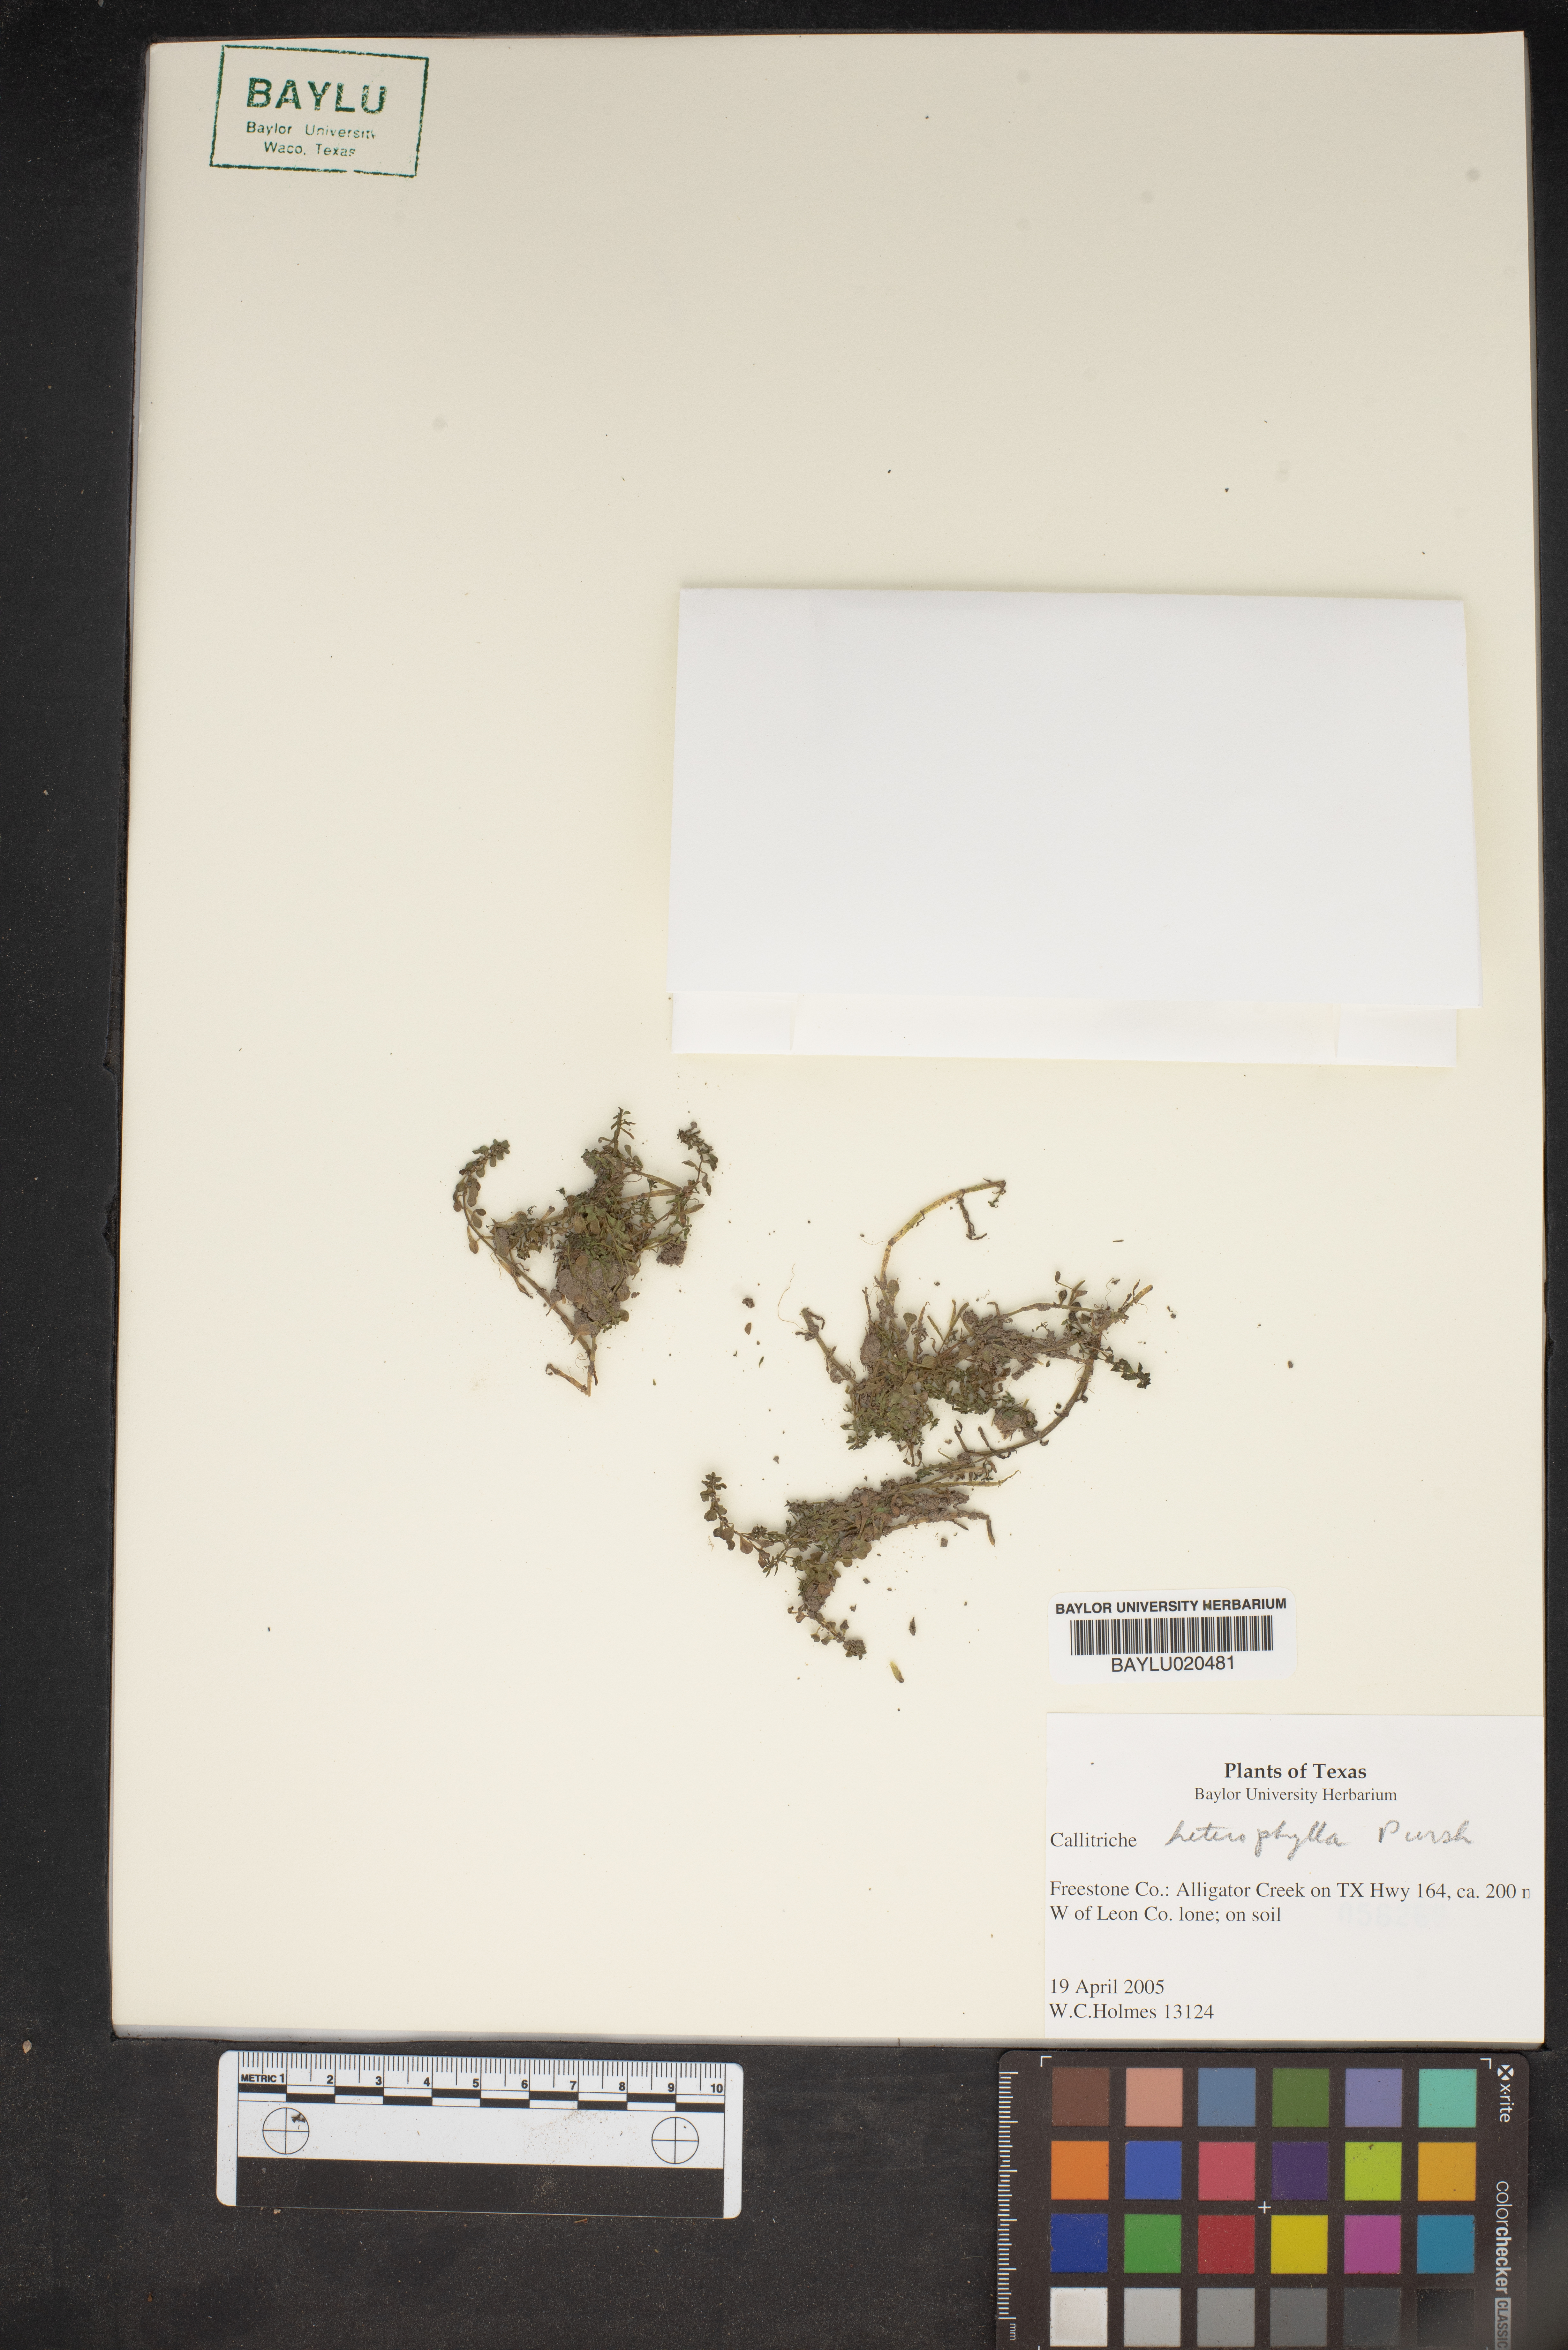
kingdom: Plantae
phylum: Tracheophyta
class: Magnoliopsida
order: Lamiales
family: Plantaginaceae
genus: Callitriche
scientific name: Callitriche heterophylla
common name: Two-headed water-starwort
